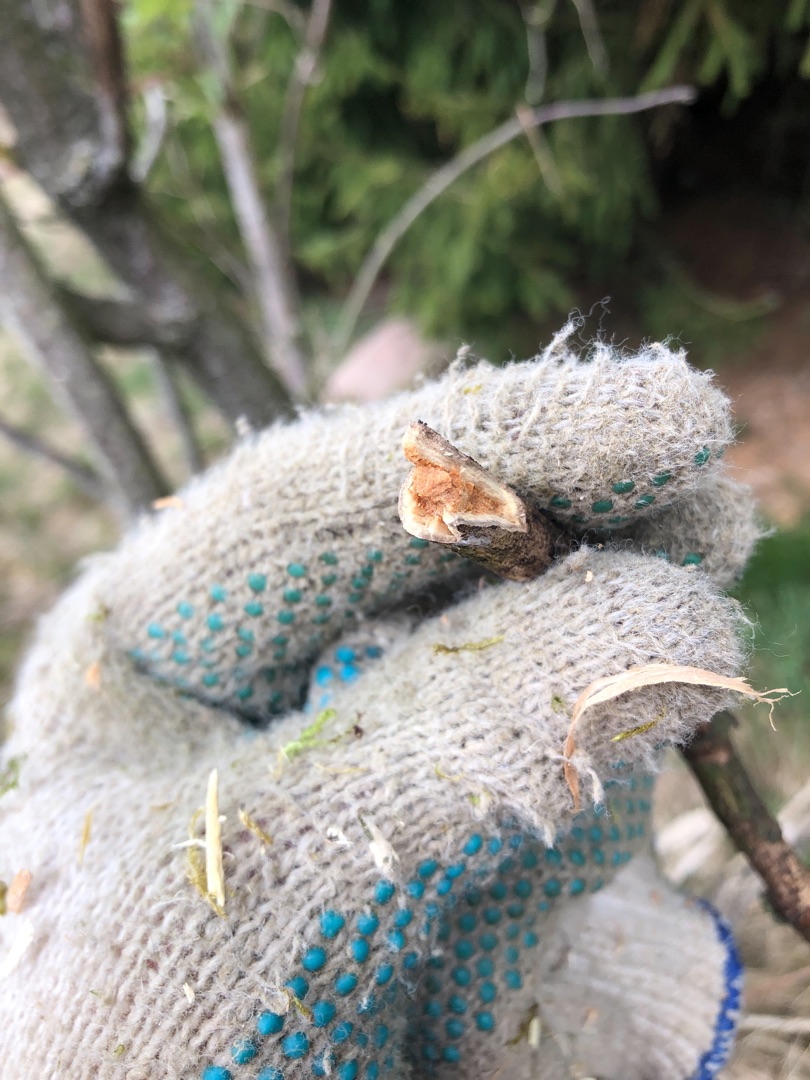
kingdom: Plantae
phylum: Tracheophyta
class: Magnoliopsida
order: Dipsacales
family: Viburnaceae
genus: Sambucus
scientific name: Sambucus racemosa
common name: Drue-hyld
